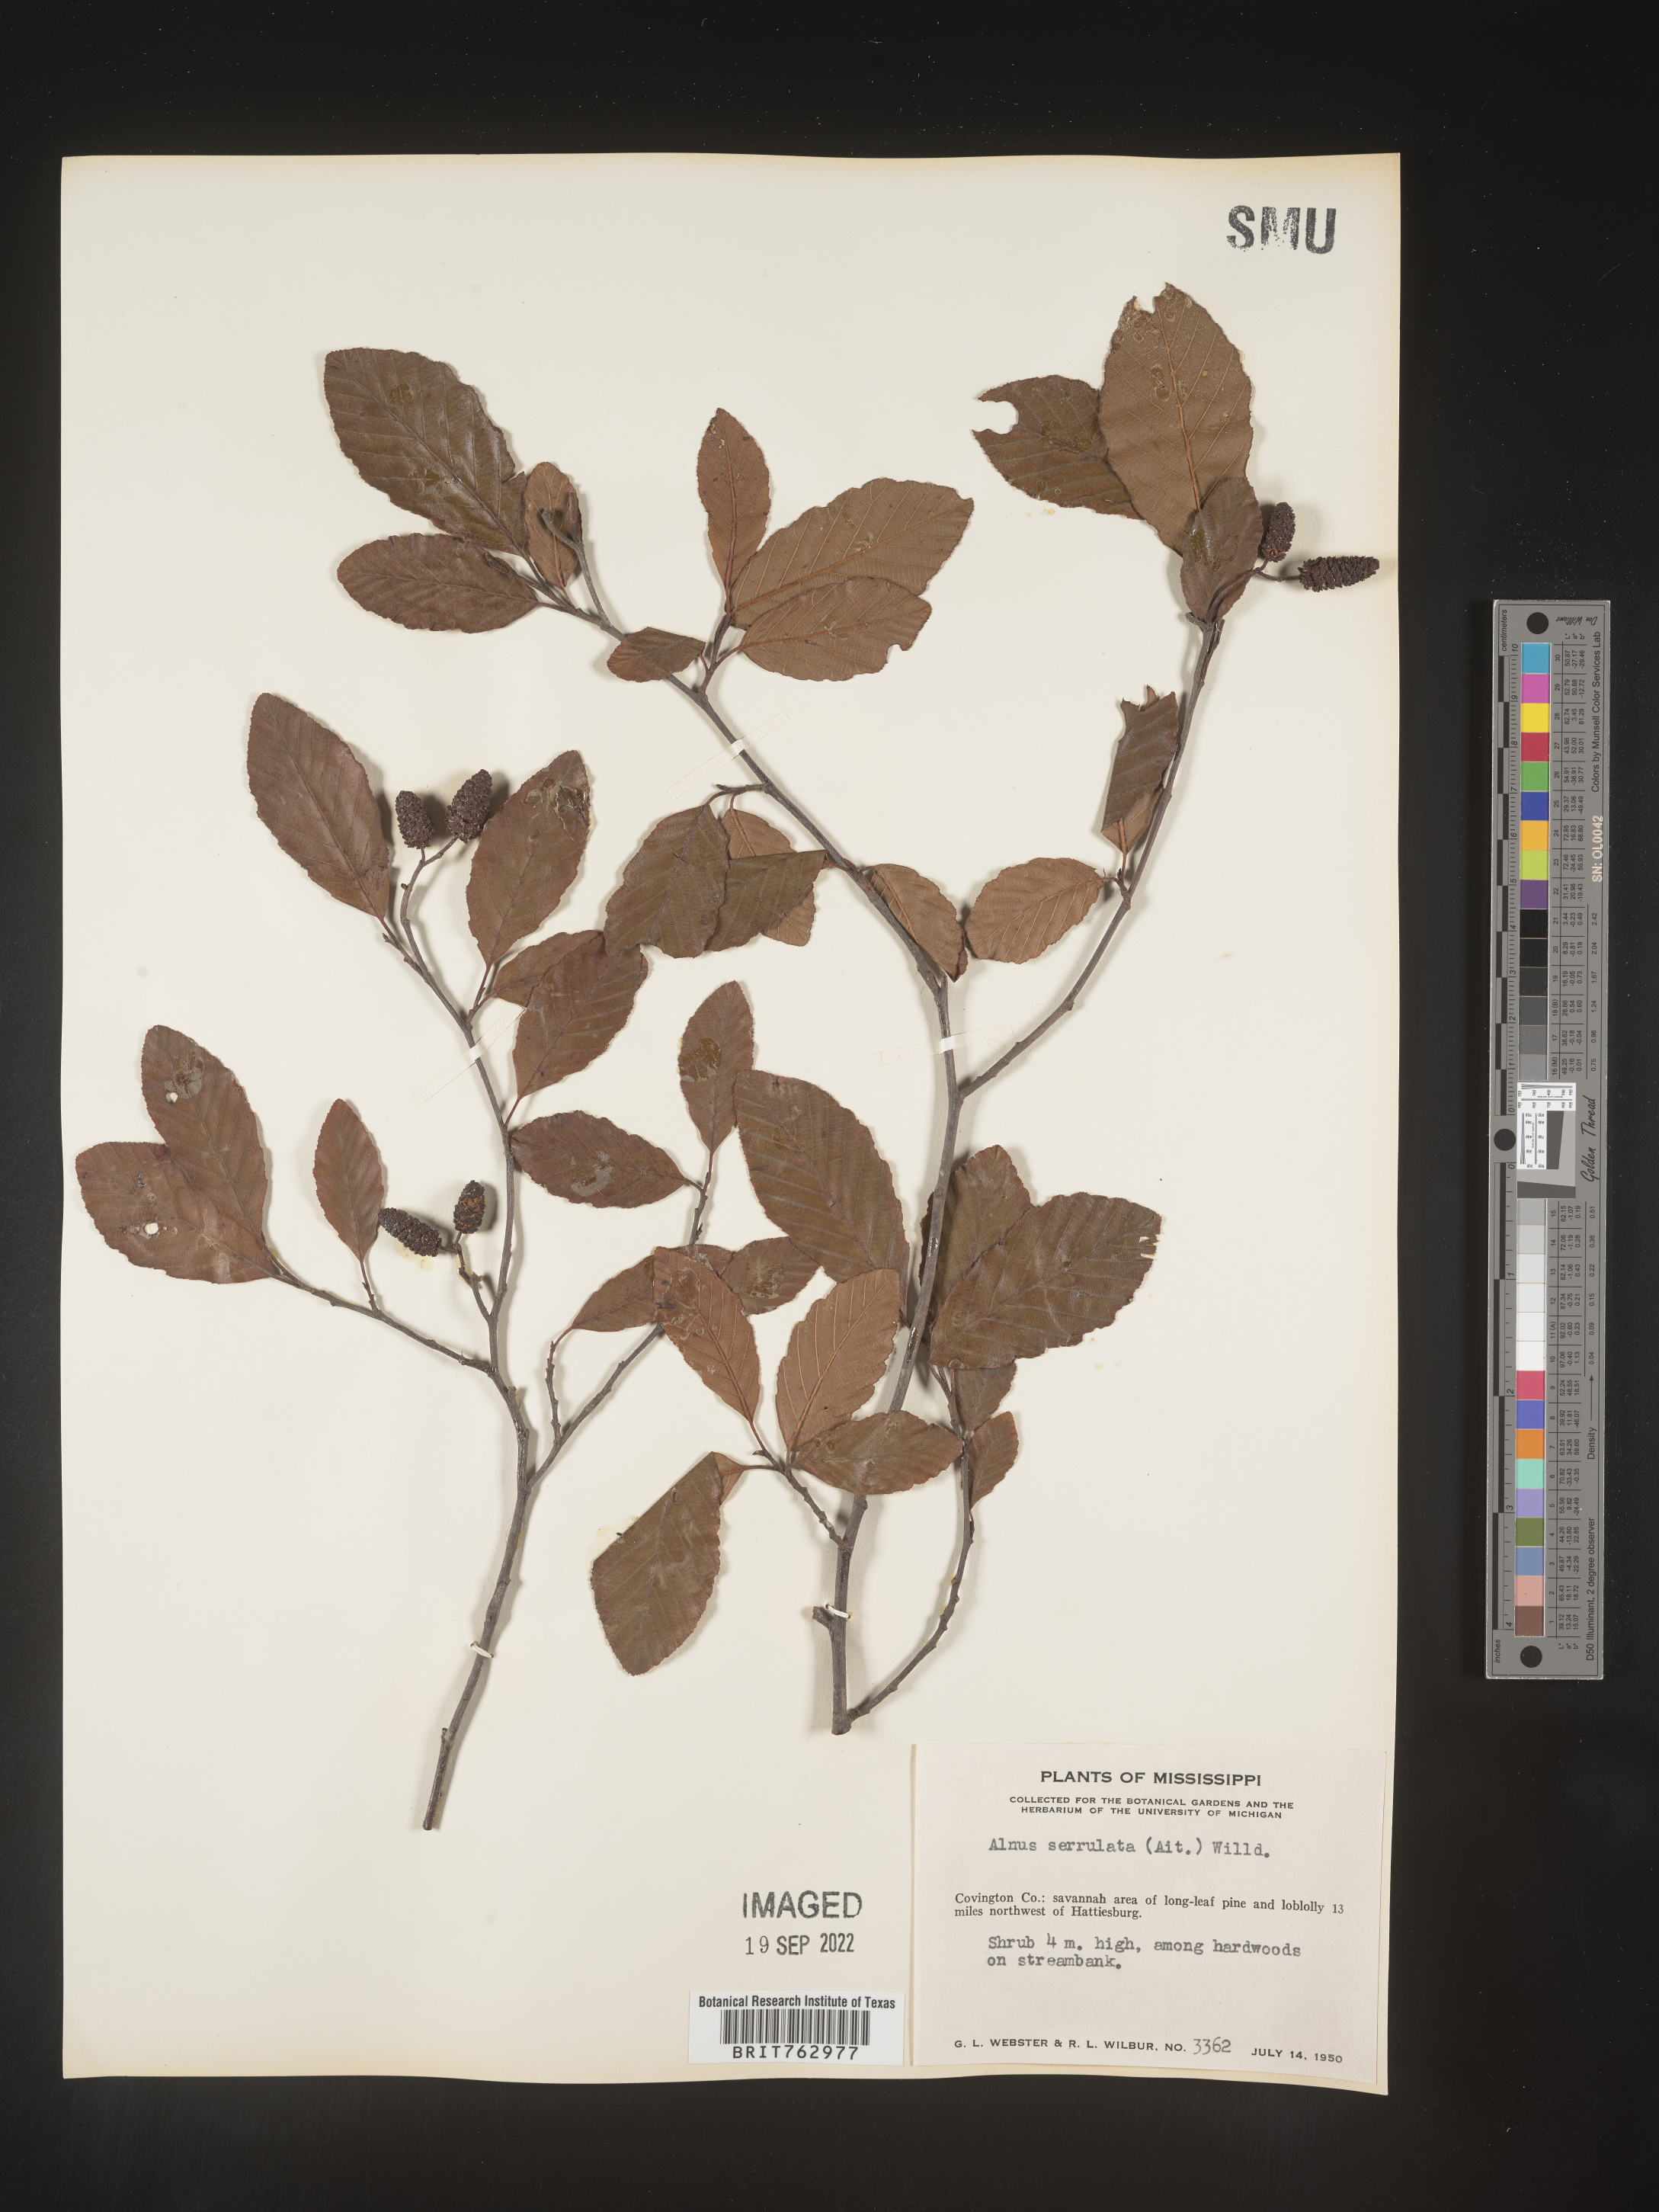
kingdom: Plantae
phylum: Tracheophyta
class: Magnoliopsida
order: Fagales
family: Betulaceae
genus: Alnus
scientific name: Alnus serrulata
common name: Hazel alder
